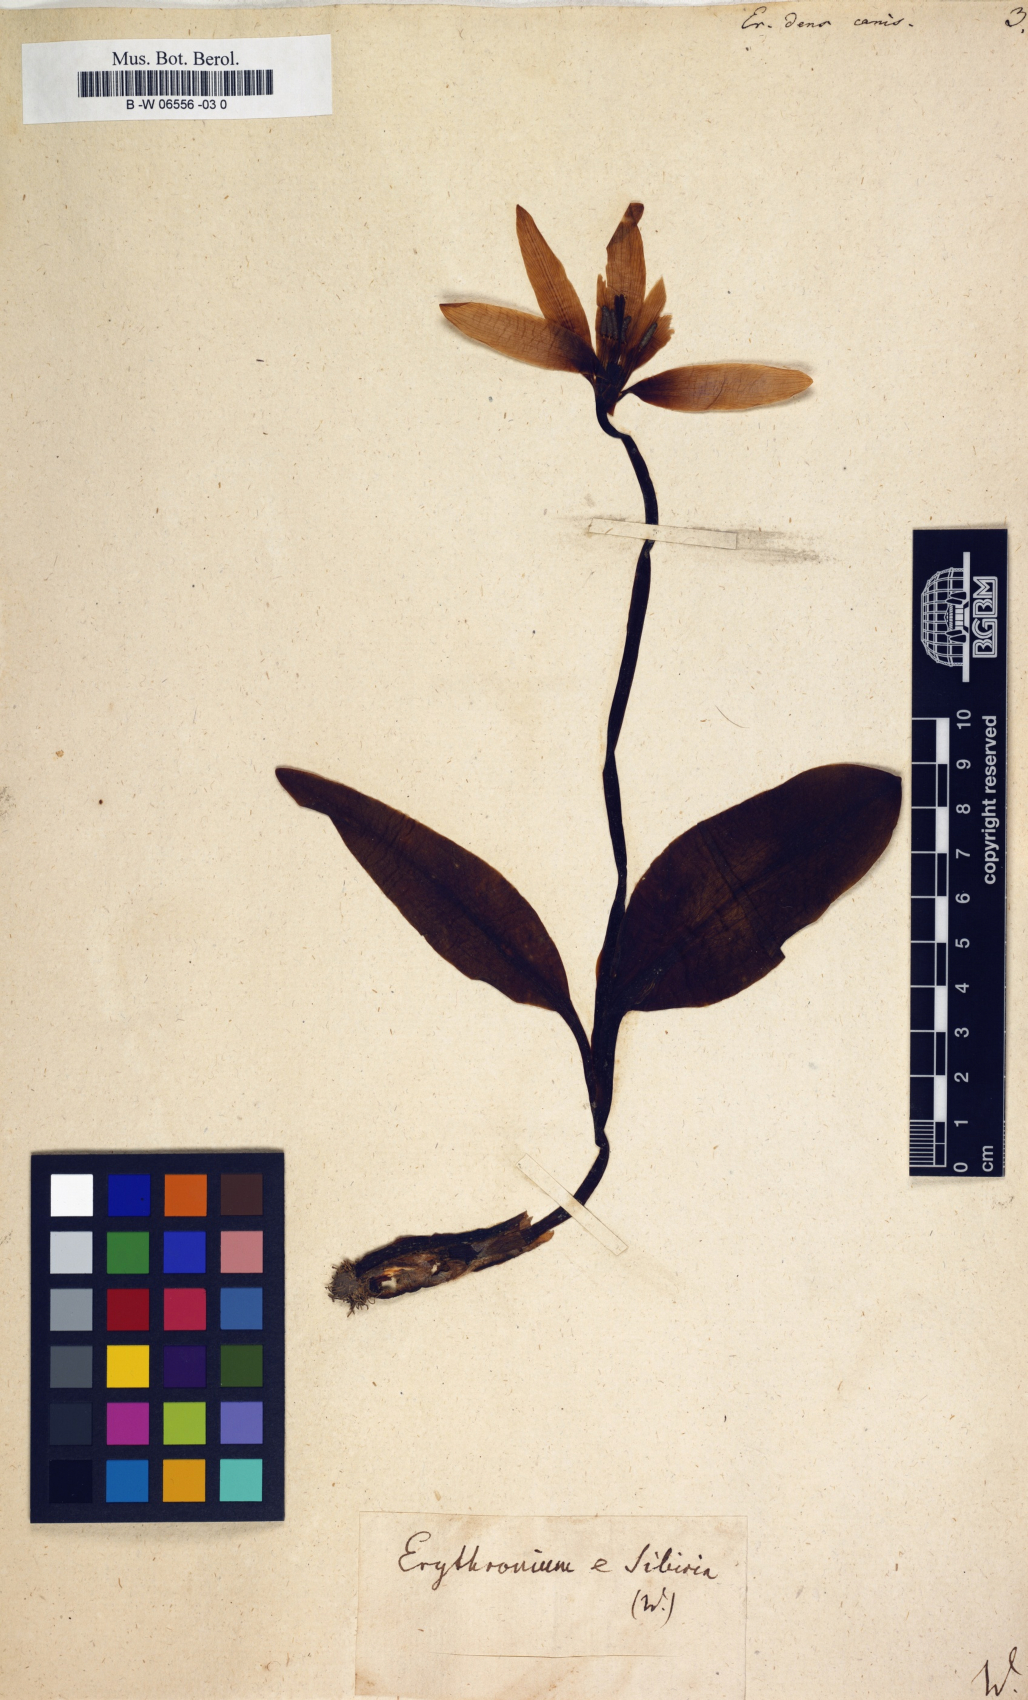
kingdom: Plantae
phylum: Tracheophyta
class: Liliopsida
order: Liliales
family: Liliaceae
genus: Erythronium
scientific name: Erythronium dens-canis
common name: Dog's-tooth-violet
